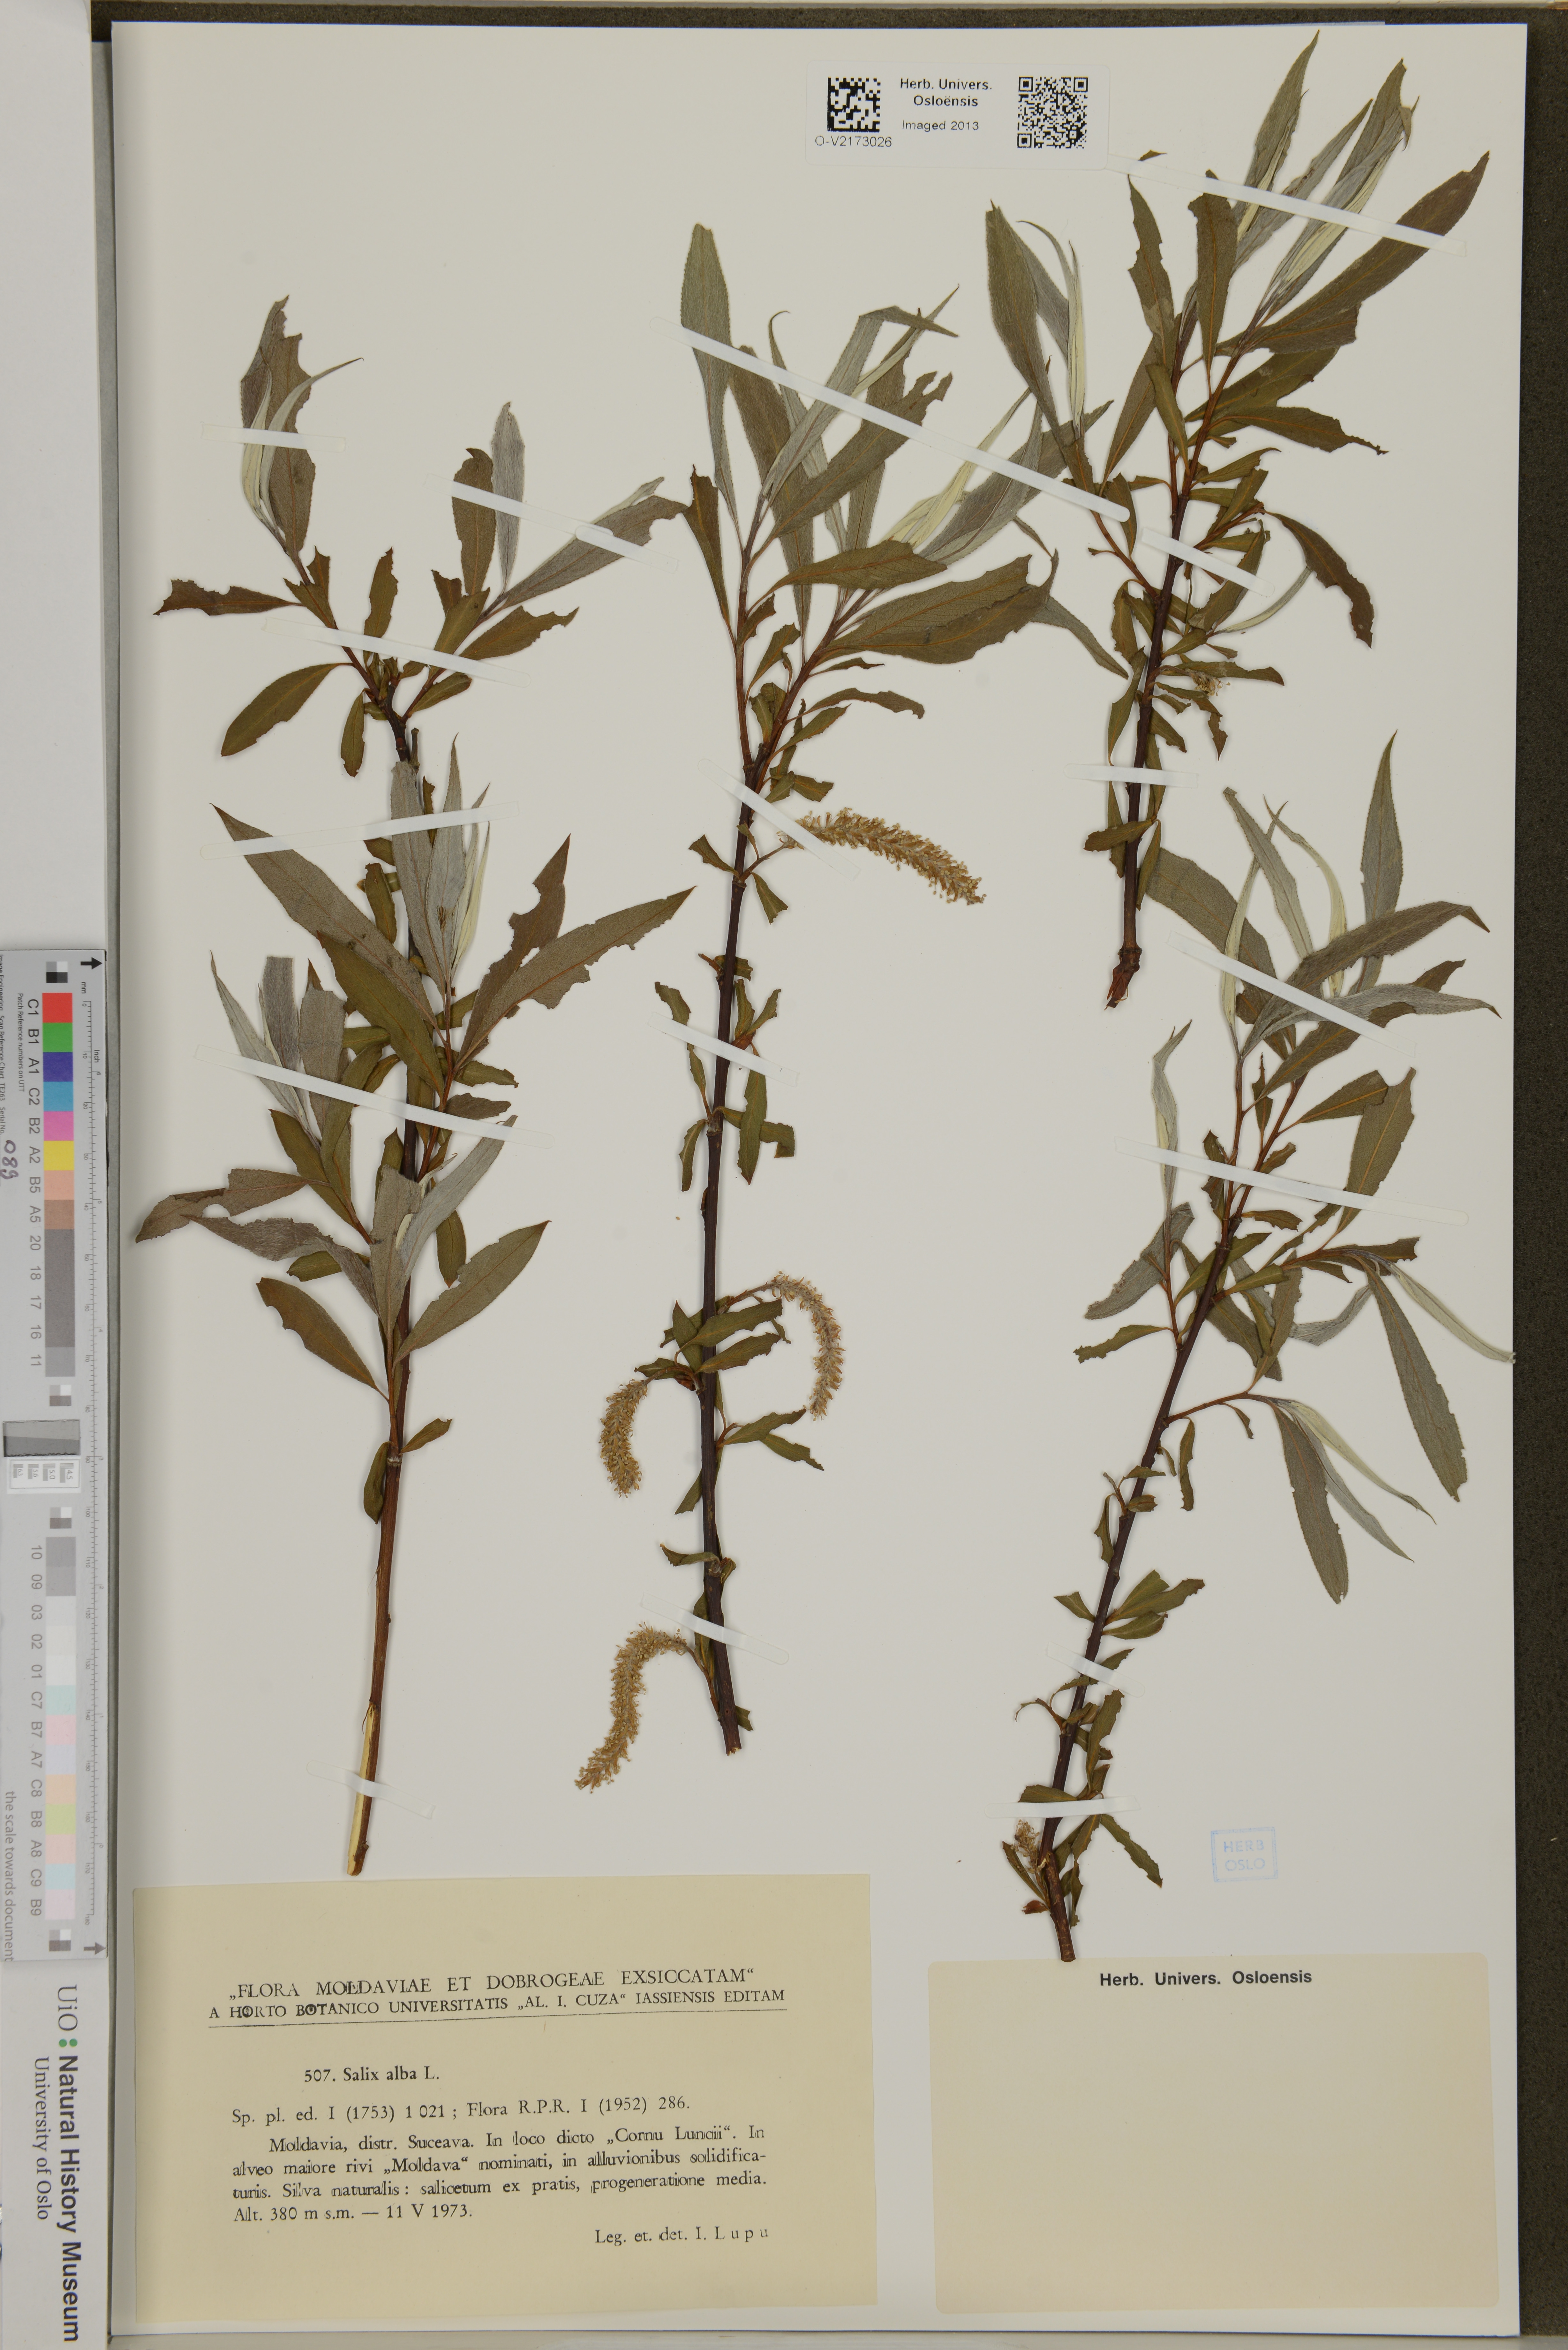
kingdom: Plantae
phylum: Tracheophyta
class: Magnoliopsida
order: Malpighiales
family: Salicaceae
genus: Salix
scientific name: Salix alba
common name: White willow
